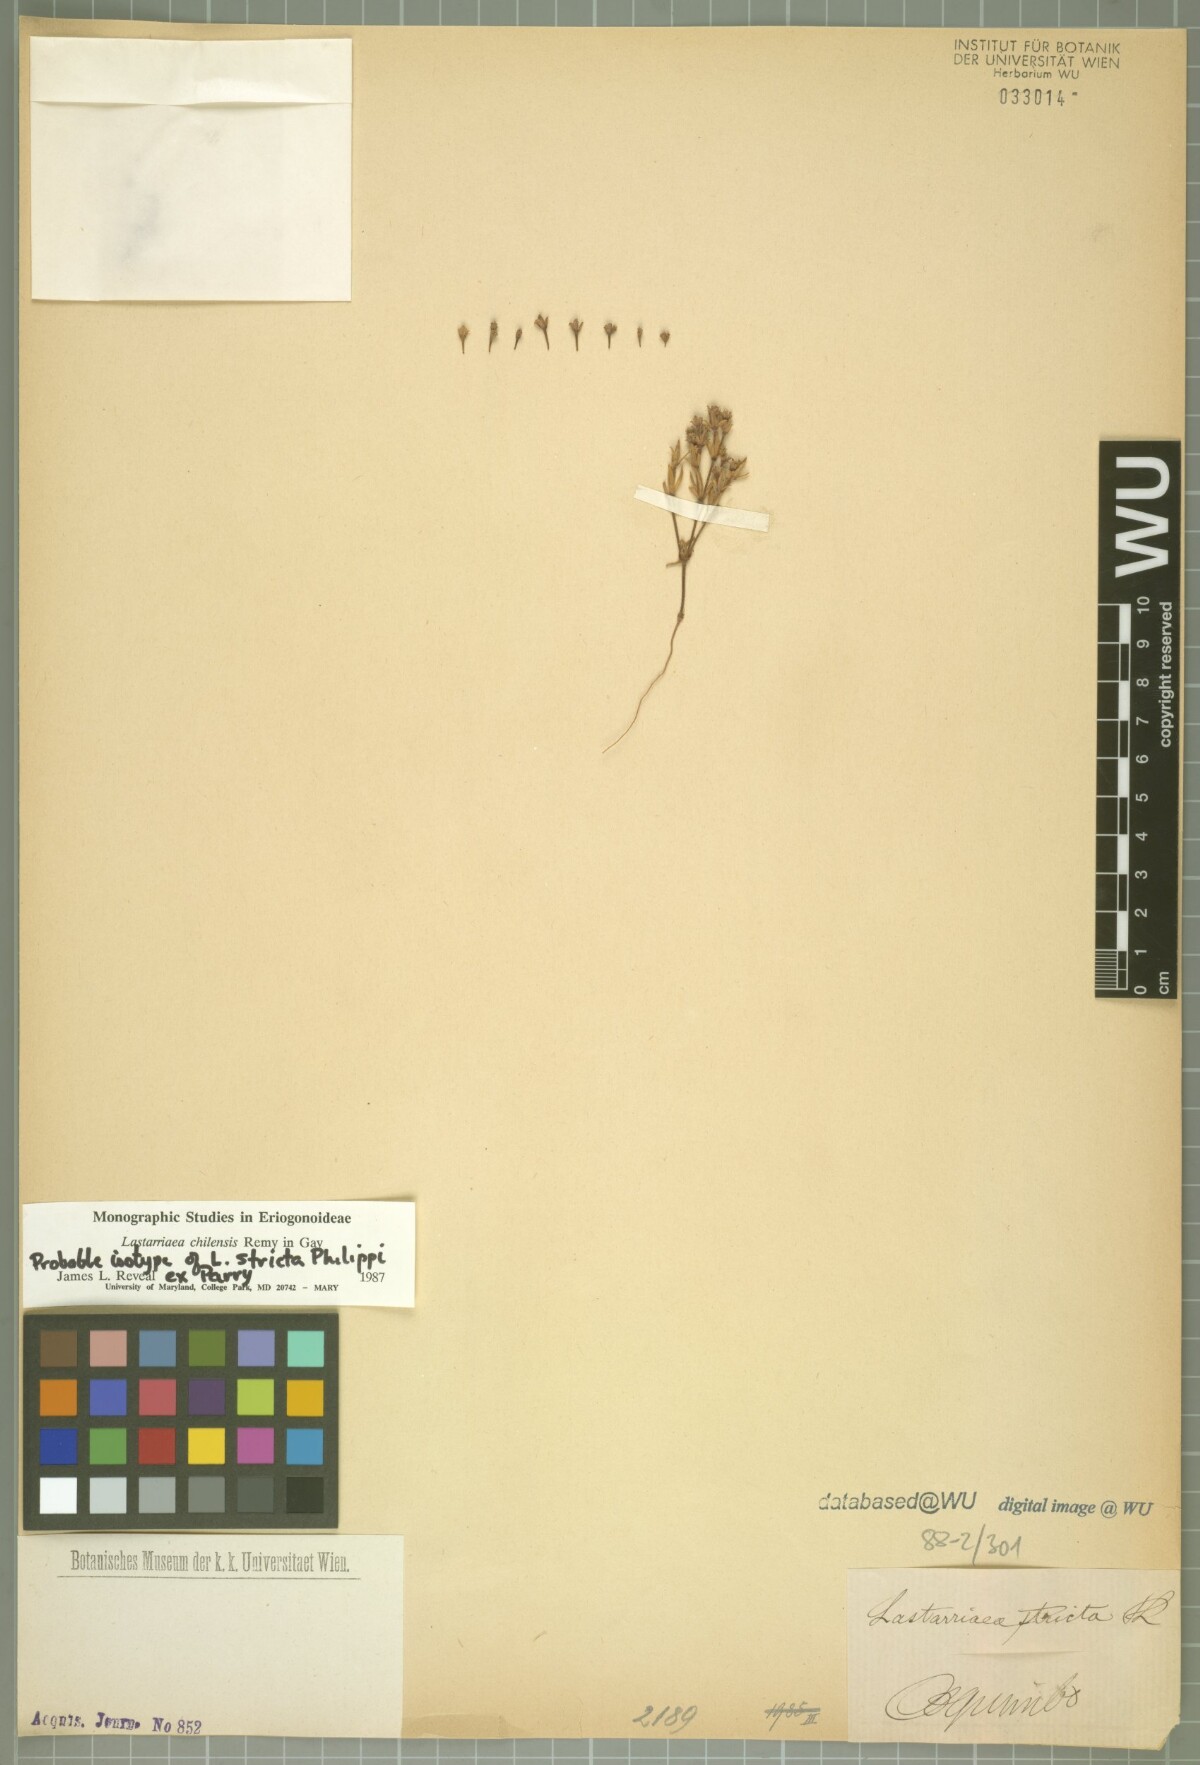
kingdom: Plantae
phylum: Tracheophyta
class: Magnoliopsida
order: Caryophyllales
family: Polygonaceae
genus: Lastarriaea
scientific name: Lastarriaea chilensis
